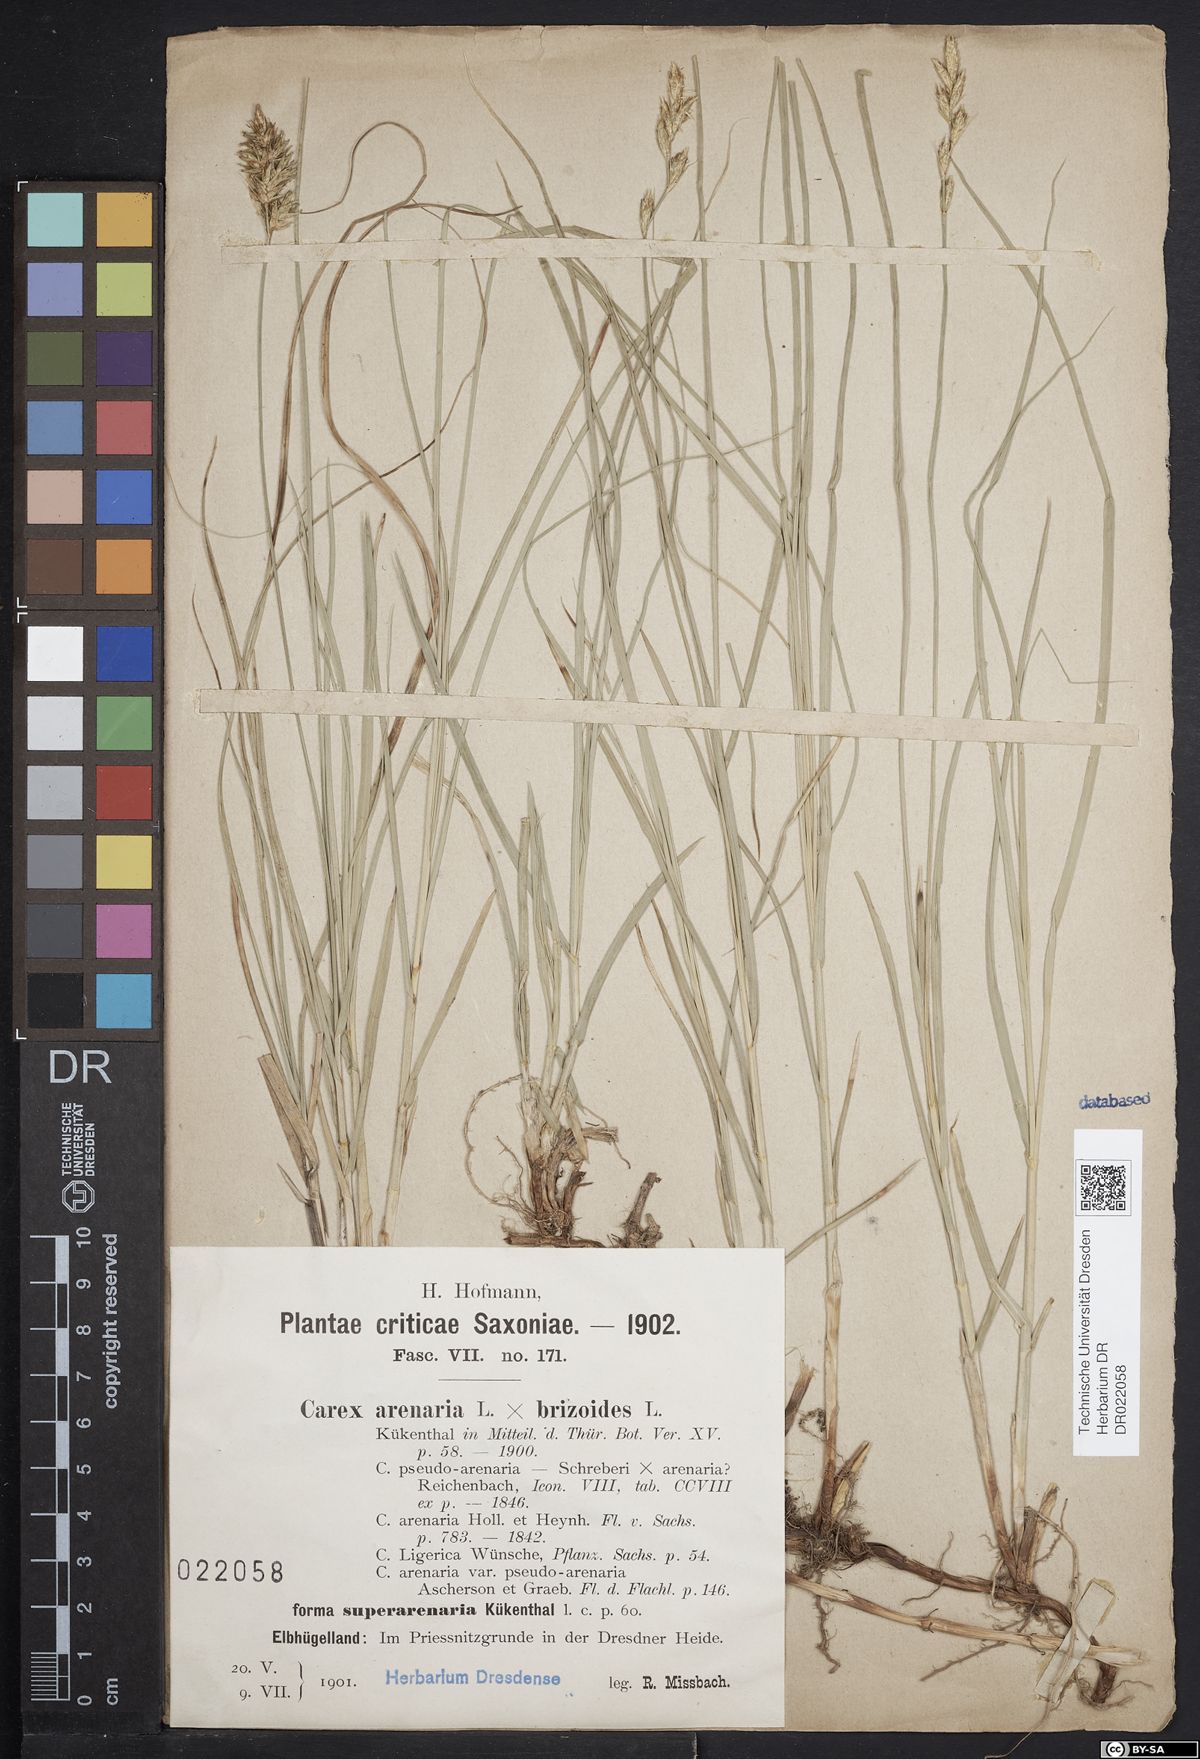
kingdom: Plantae
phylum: Tracheophyta
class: Liliopsida
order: Poales
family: Cyperaceae
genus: Carex
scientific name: Carex pseudobrizoides
